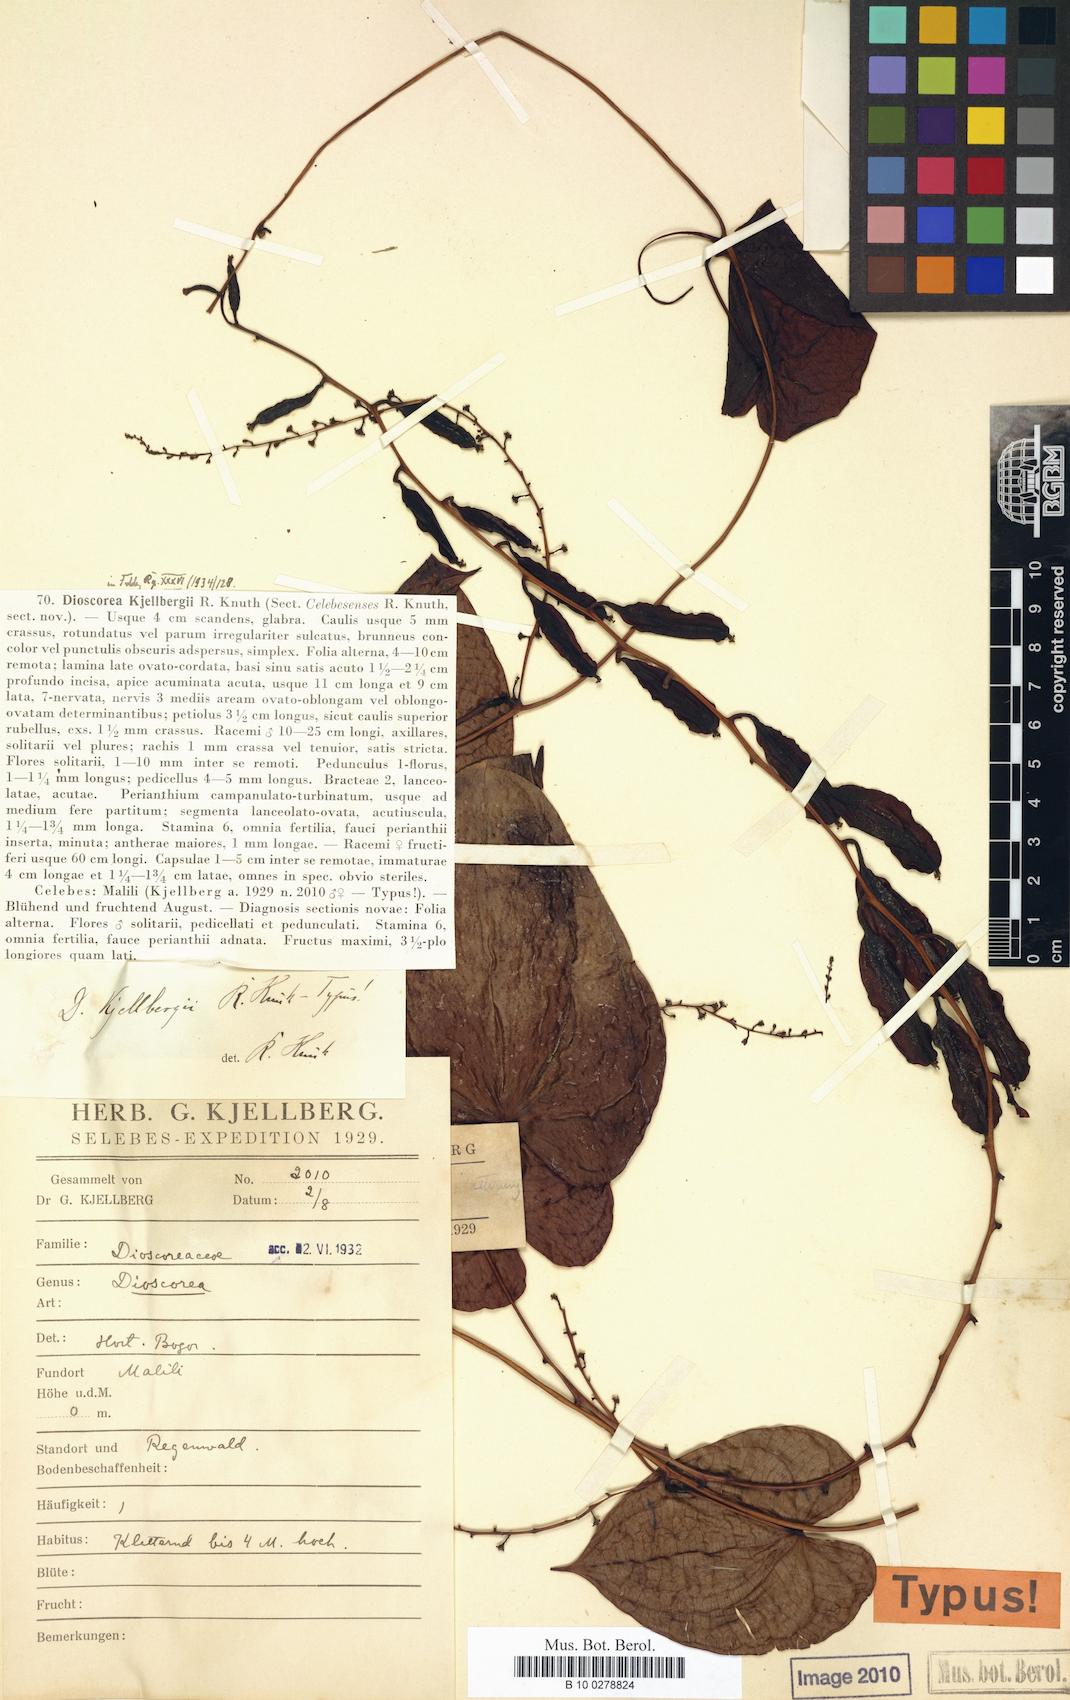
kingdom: Plantae
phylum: Tracheophyta
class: Liliopsida
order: Dioscoreales
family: Dioscoreaceae
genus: Dioscorea
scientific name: Dioscorea kjellbergii
